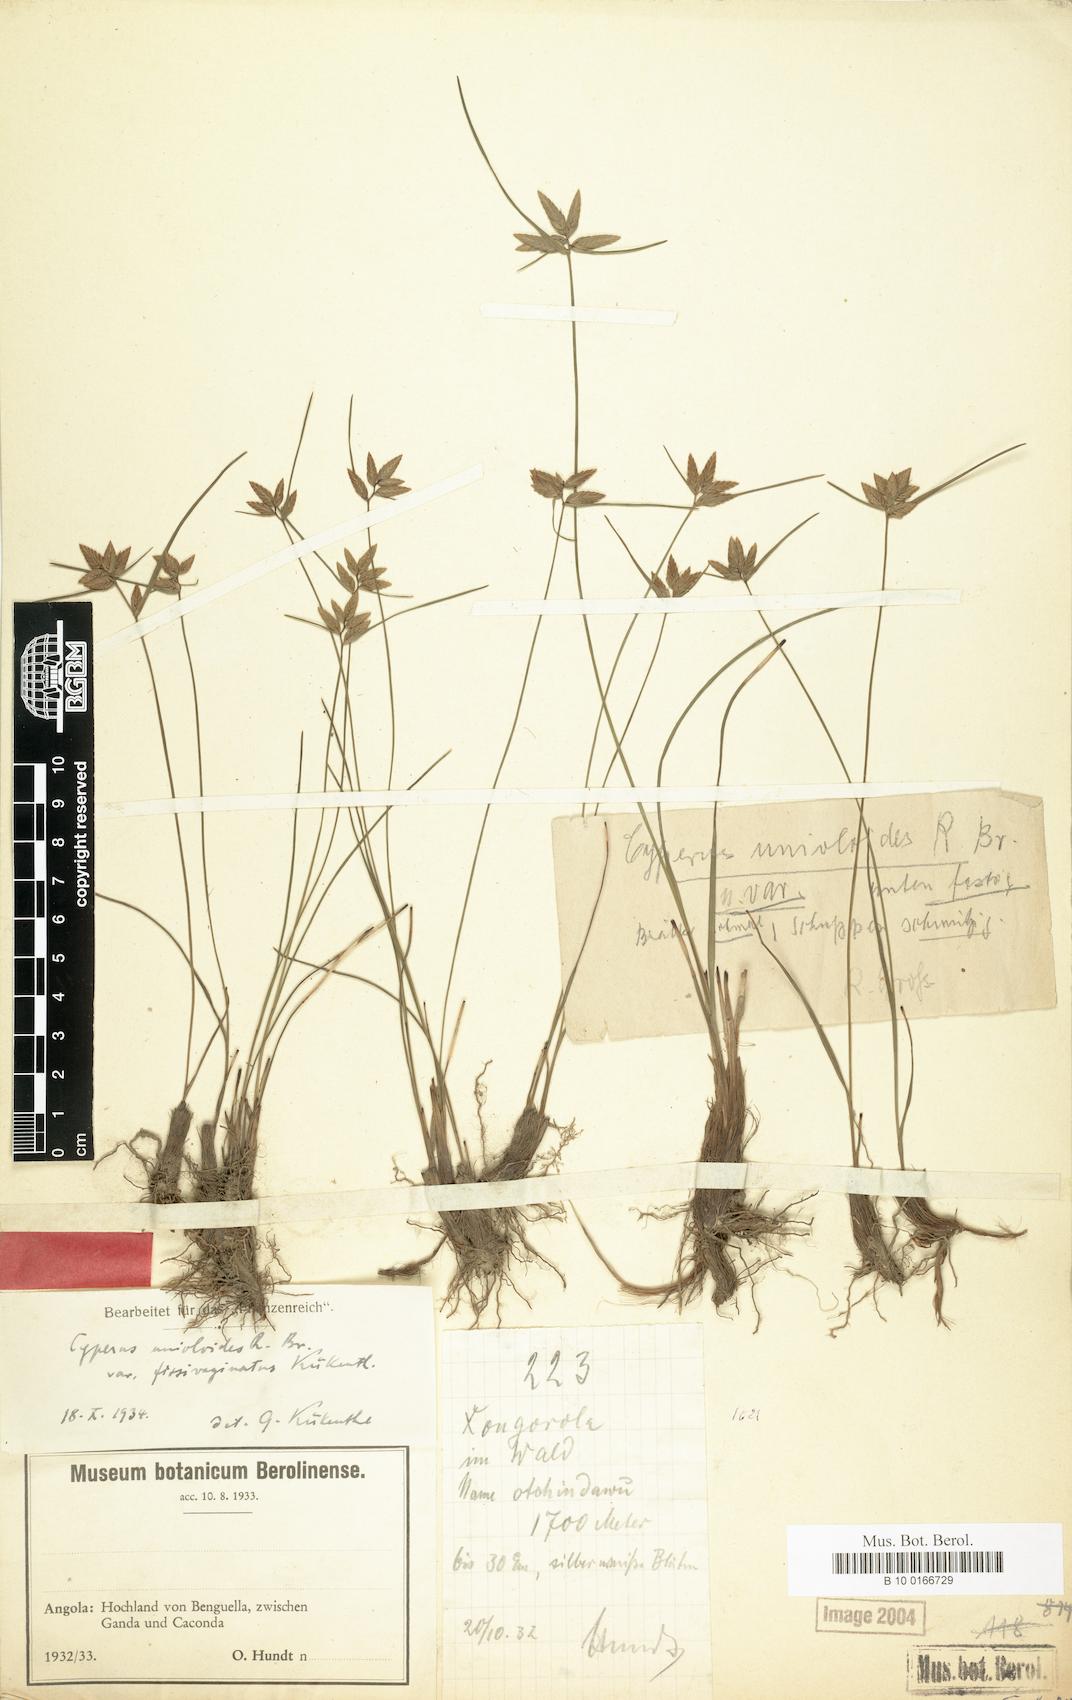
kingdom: Plantae
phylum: Tracheophyta
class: Liliopsida
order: Poales
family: Cyperaceae
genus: Cyperus
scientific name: Cyperus unioloides
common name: Uniola flatsedge
